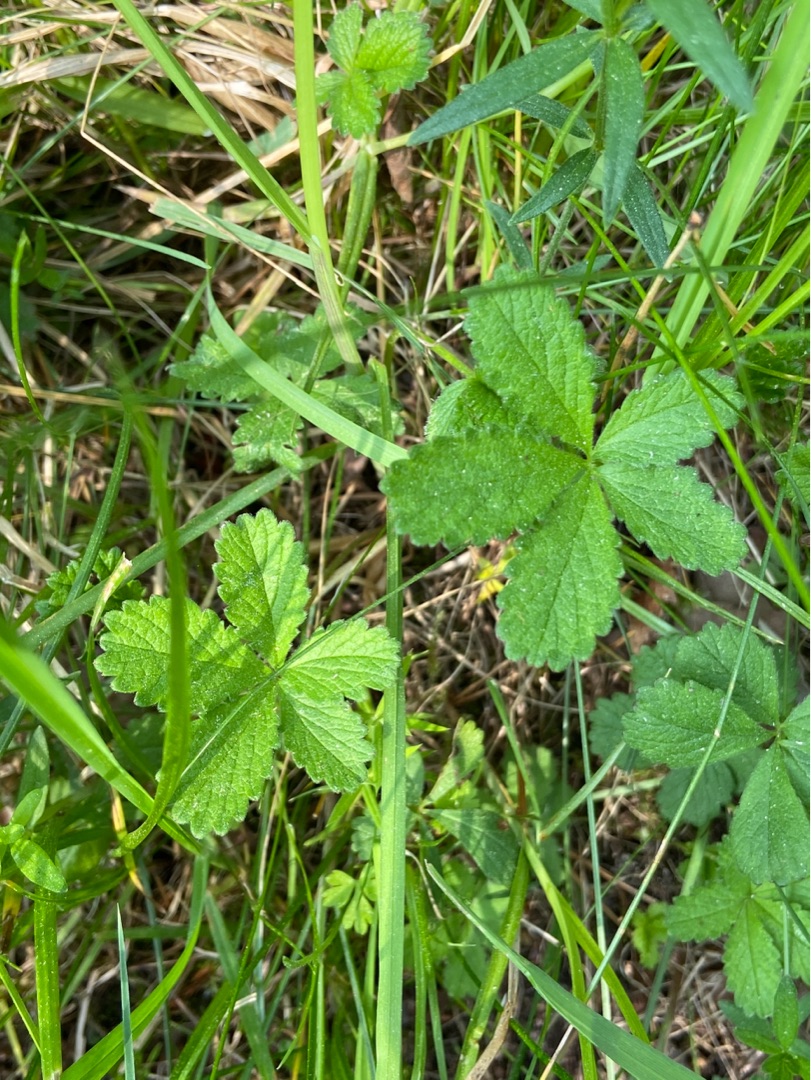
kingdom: Plantae
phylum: Tracheophyta
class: Magnoliopsida
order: Rosales
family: Rosaceae
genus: Potentilla
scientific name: Potentilla reptans
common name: Krybende potentil
